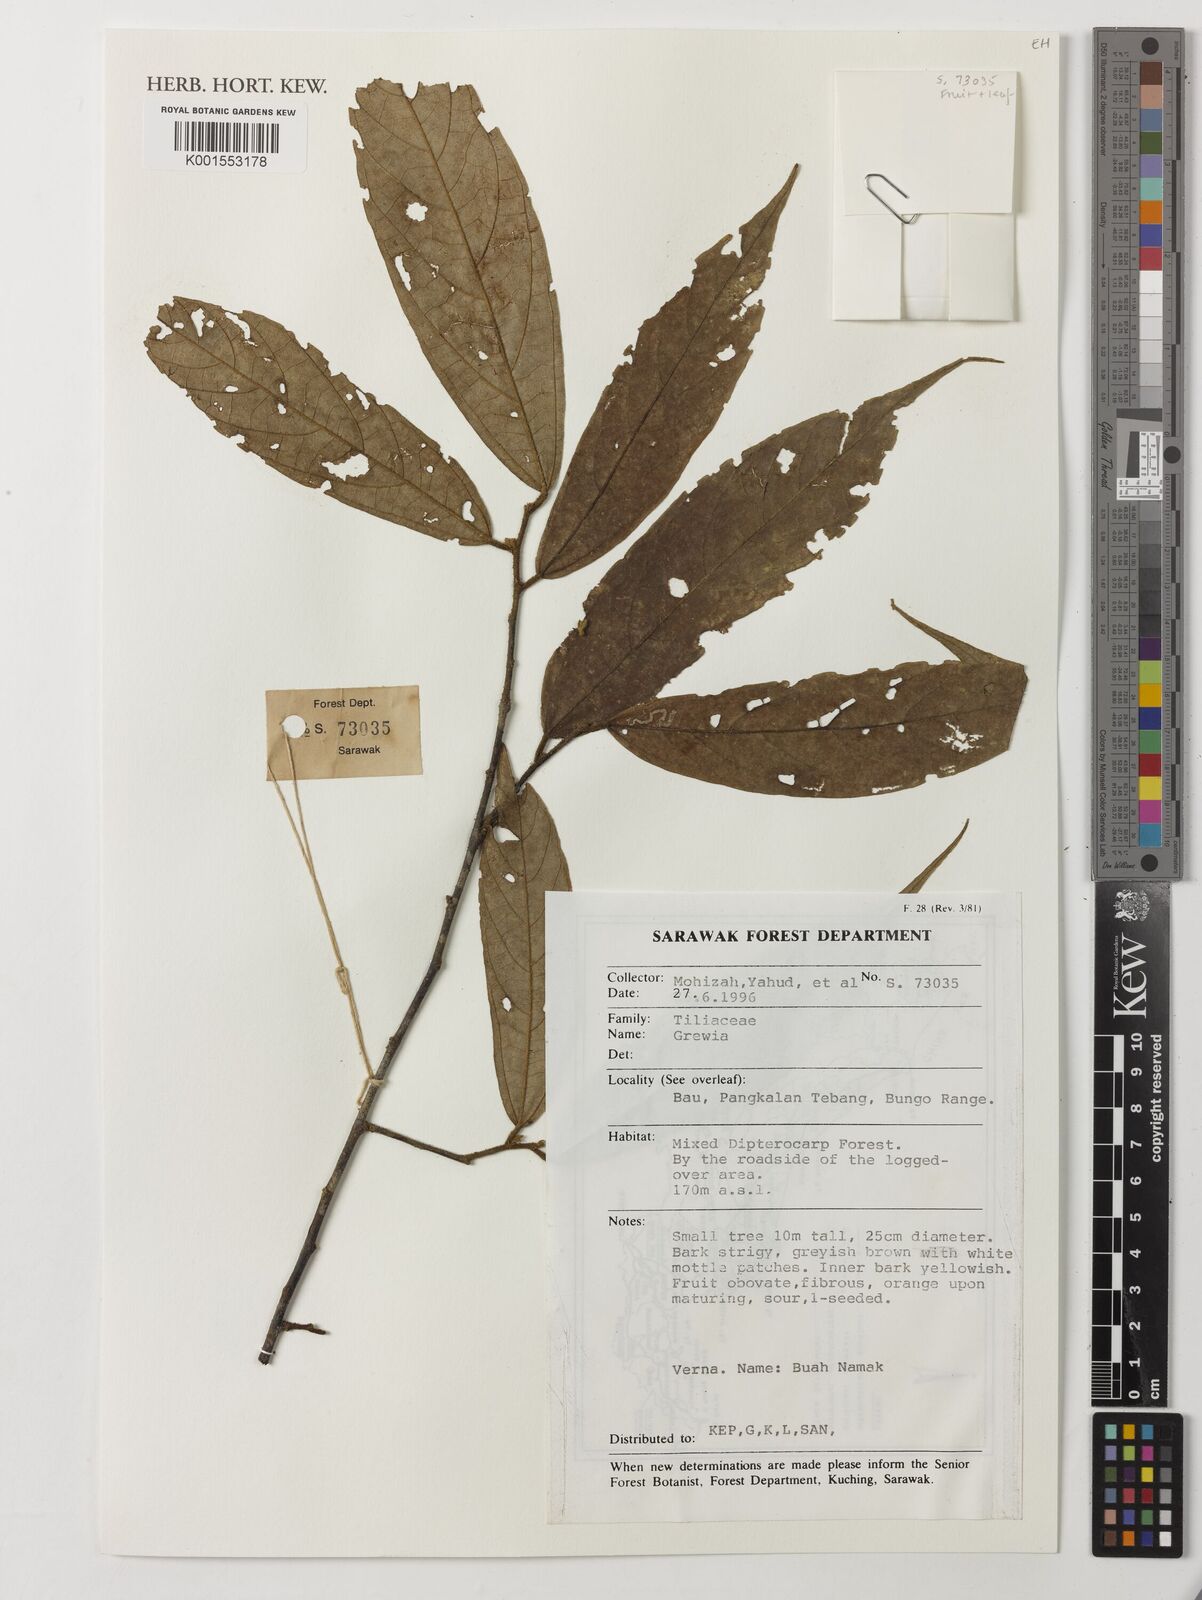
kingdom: Plantae
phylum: Tracheophyta
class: Magnoliopsida
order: Malvales
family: Malvaceae
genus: Grewia
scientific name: Grewia
